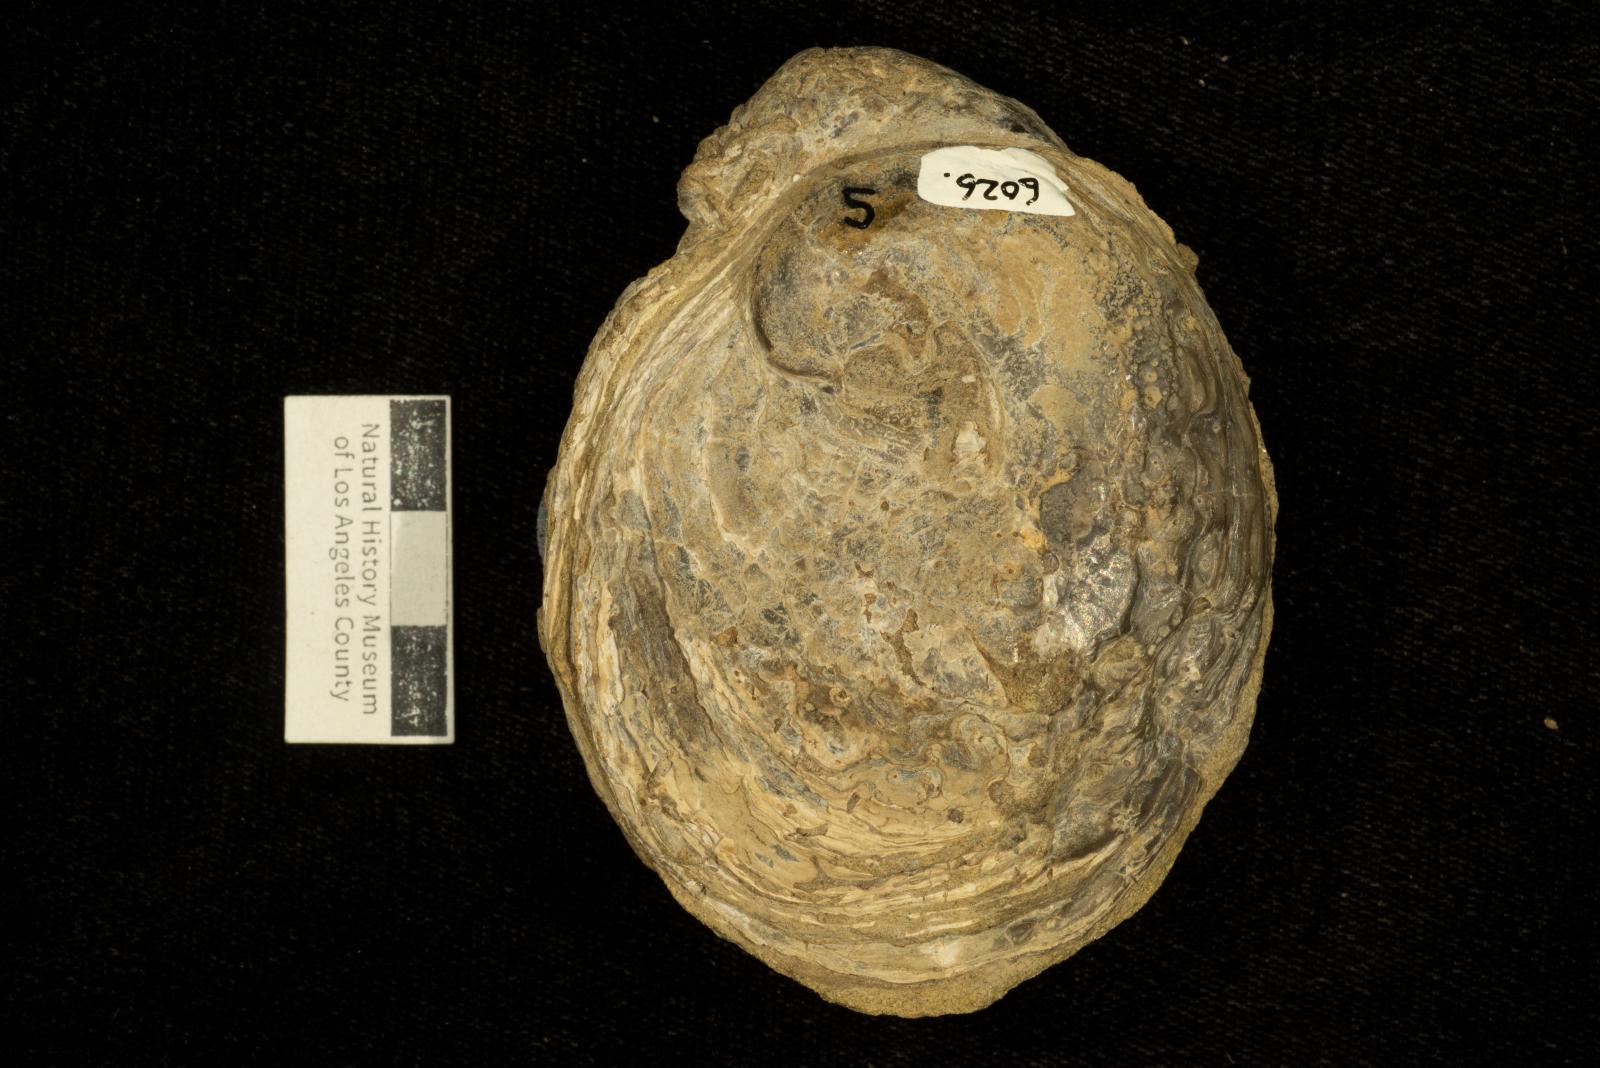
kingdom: Animalia
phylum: Mollusca
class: Bivalvia
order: Ostreida
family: Gryphaeidae
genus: Costagyra
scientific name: Costagyra
